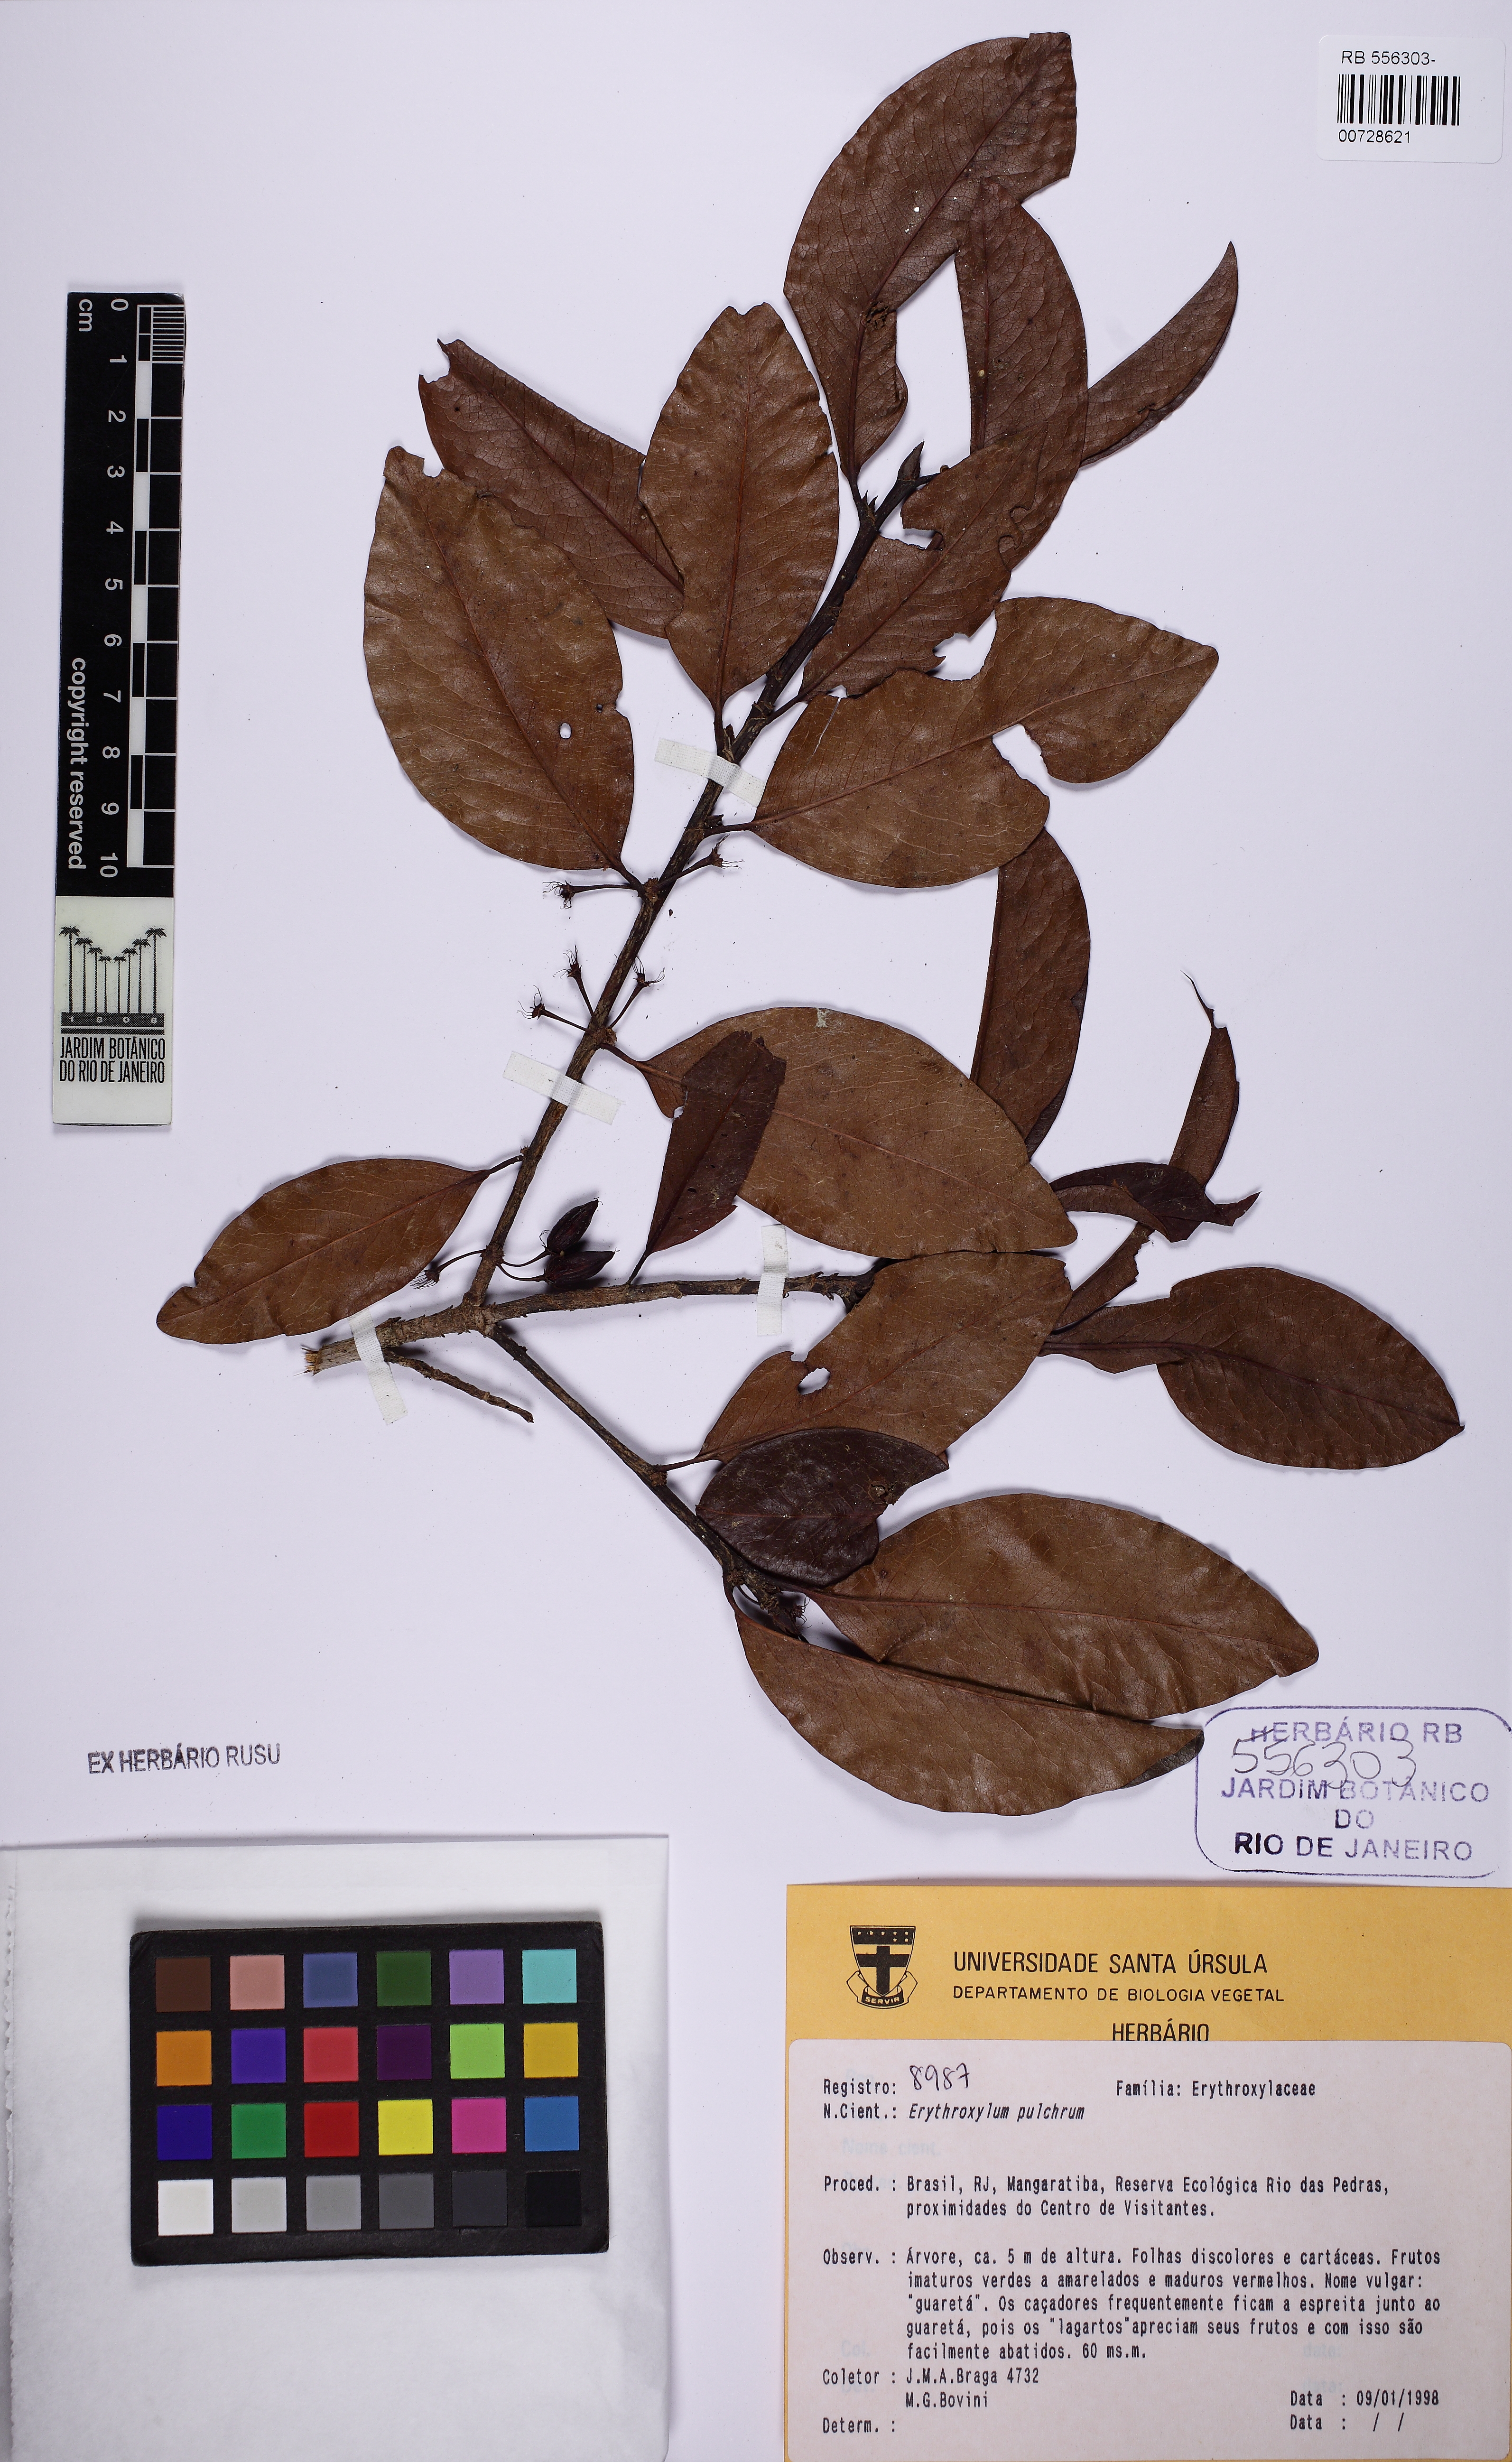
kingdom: Plantae
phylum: Tracheophyta
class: Magnoliopsida
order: Malpighiales
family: Erythroxylaceae
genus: Erythroxylum
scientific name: Erythroxylum pulchrum
